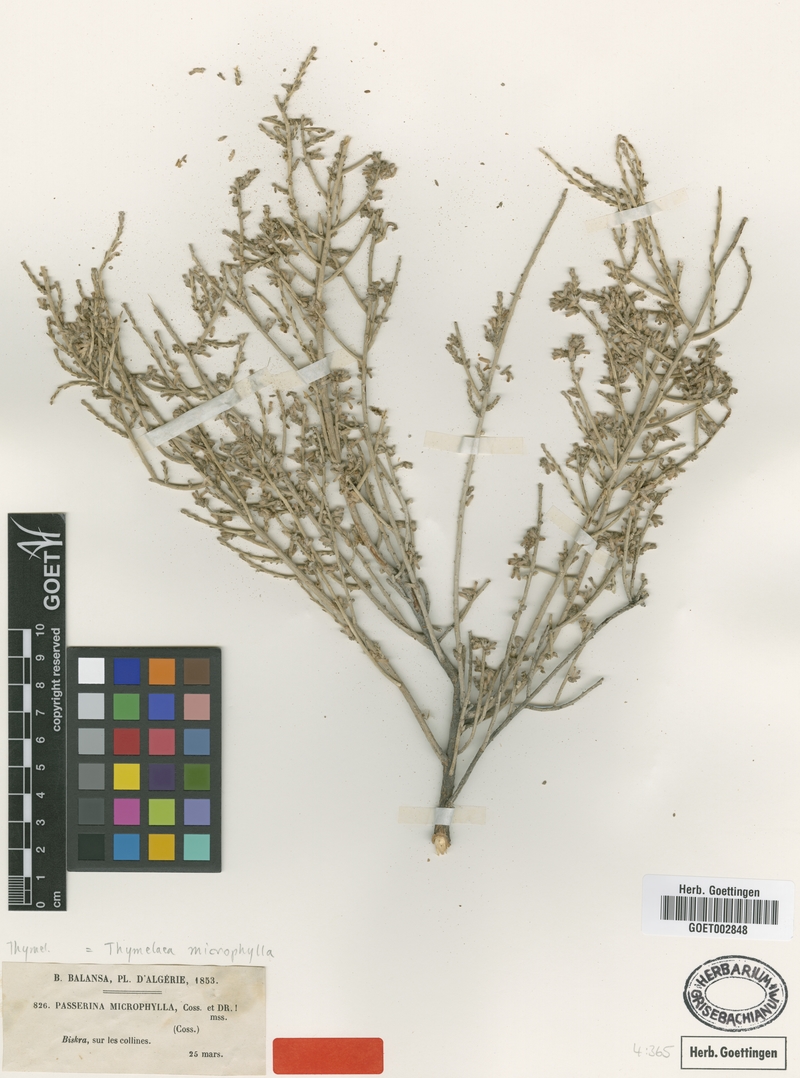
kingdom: Plantae
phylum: Tracheophyta
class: Magnoliopsida
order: Malvales
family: Thymelaeaceae
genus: Thymelaea
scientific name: Thymelaea microphylla
